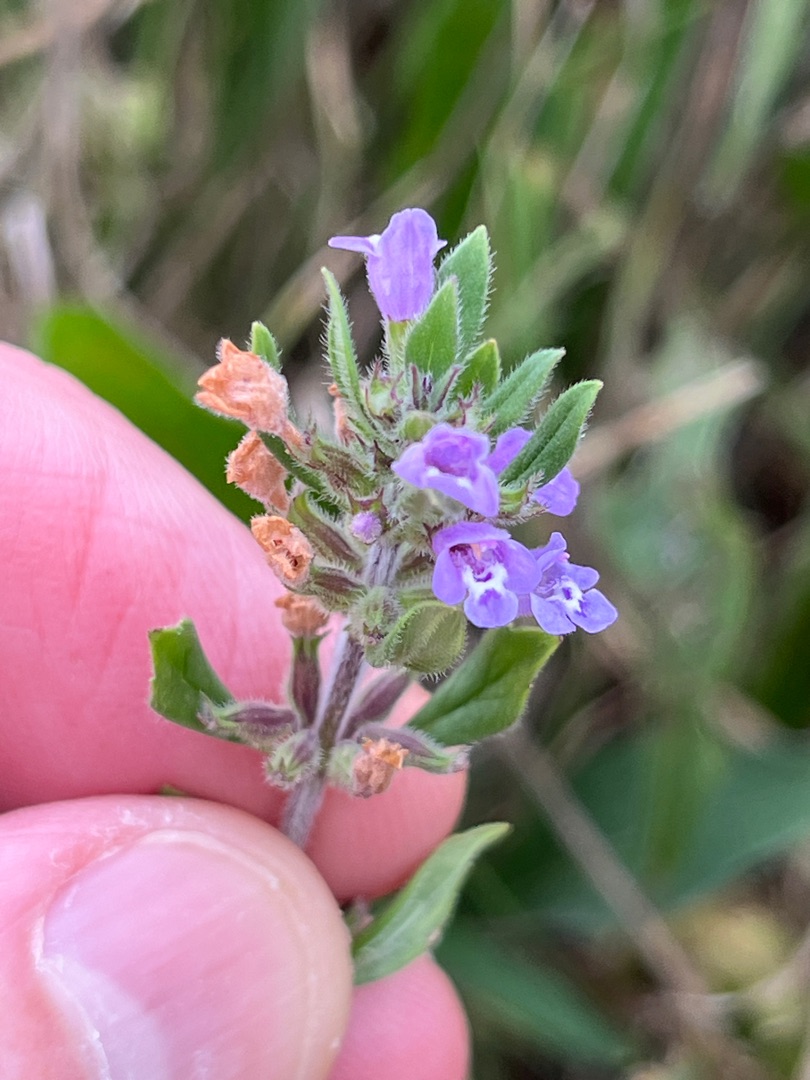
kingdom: Plantae
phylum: Tracheophyta
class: Magnoliopsida
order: Lamiales
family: Lamiaceae
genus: Clinopodium
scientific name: Clinopodium acinos
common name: Voldtimian
